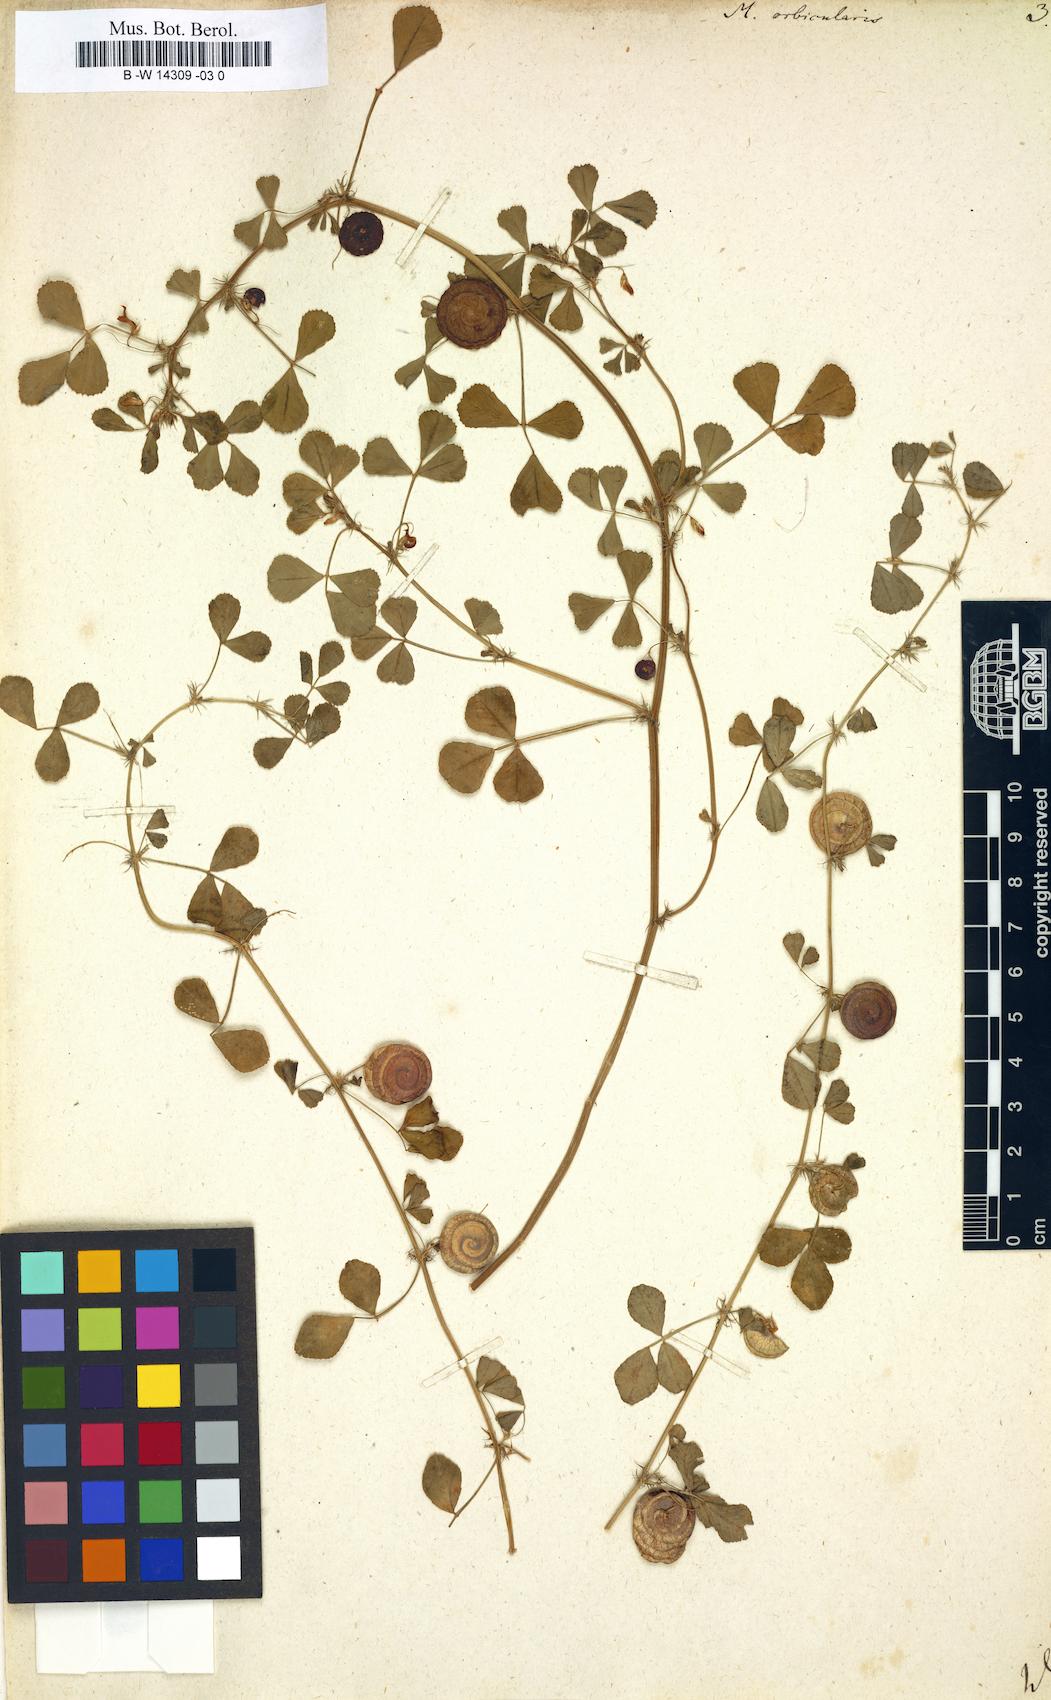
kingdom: Plantae
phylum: Tracheophyta
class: Magnoliopsida
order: Fabales
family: Fabaceae
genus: Medicago
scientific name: Medicago orbicularis
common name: Button medick
